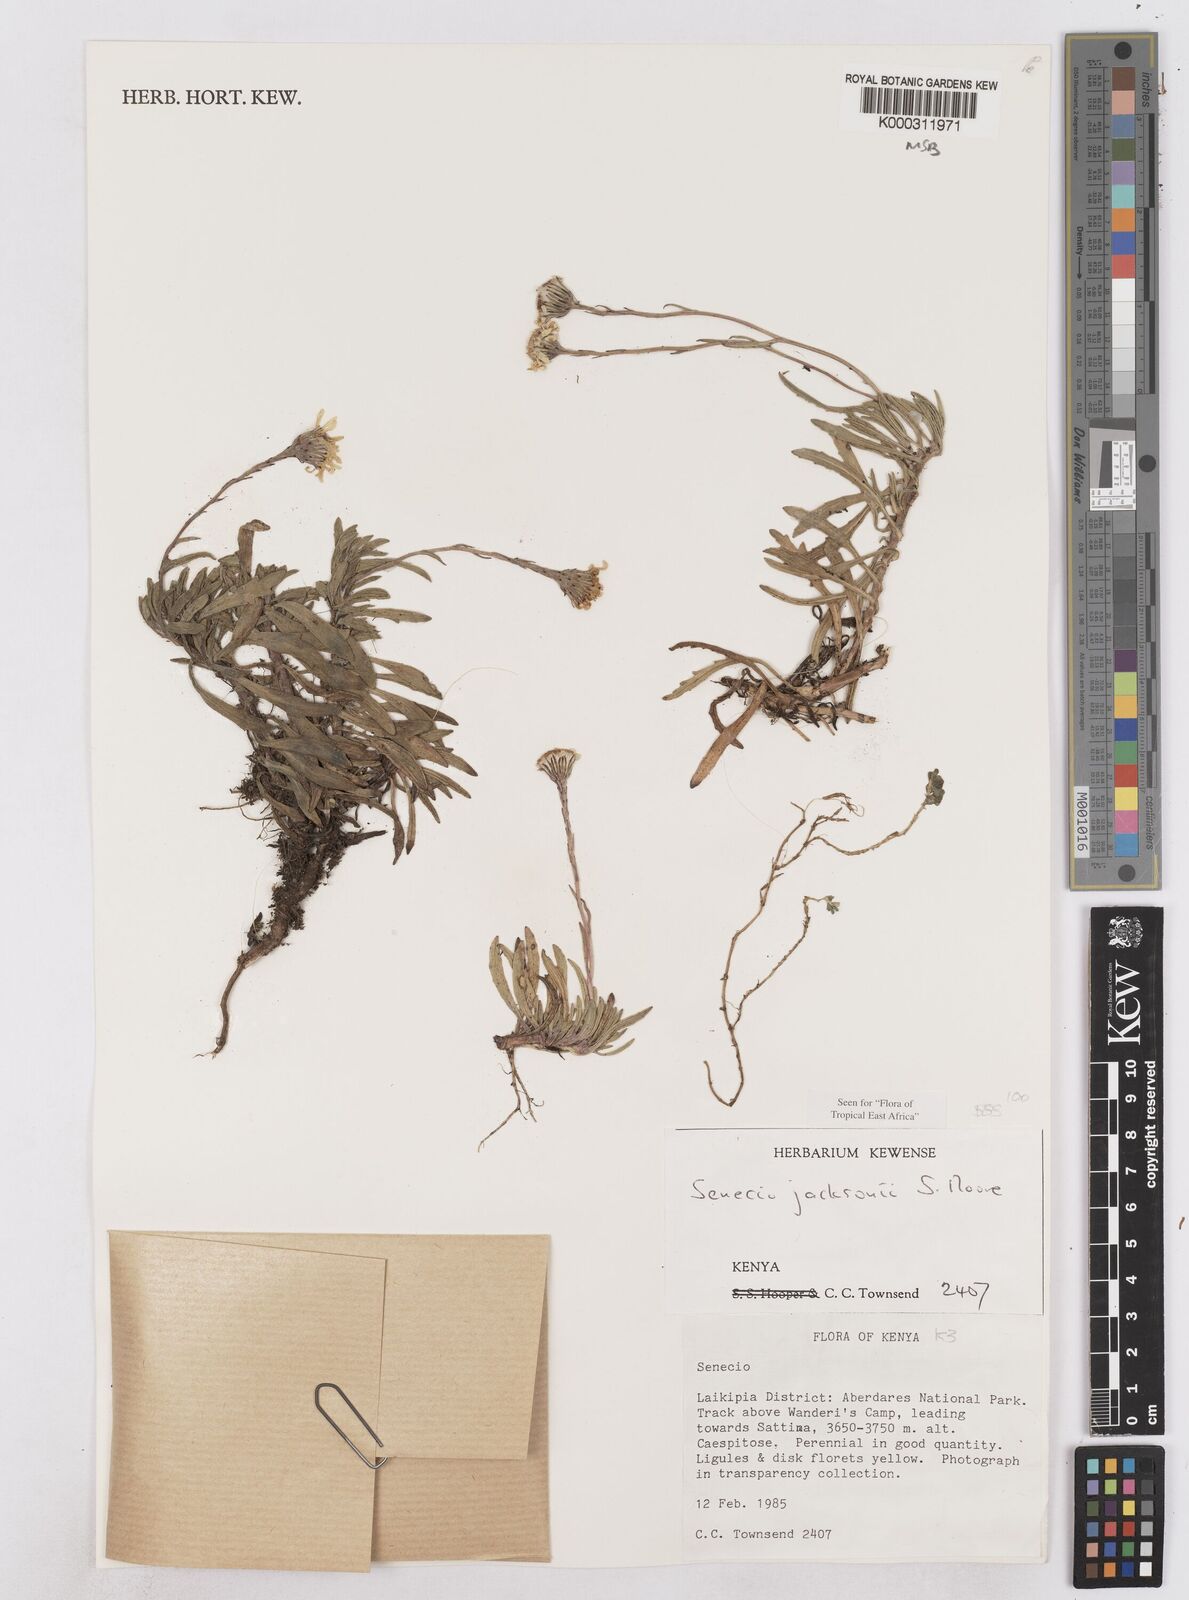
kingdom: Plantae
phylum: Tracheophyta
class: Magnoliopsida
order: Asterales
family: Asteraceae
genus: Senecio
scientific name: Senecio jacksonii
